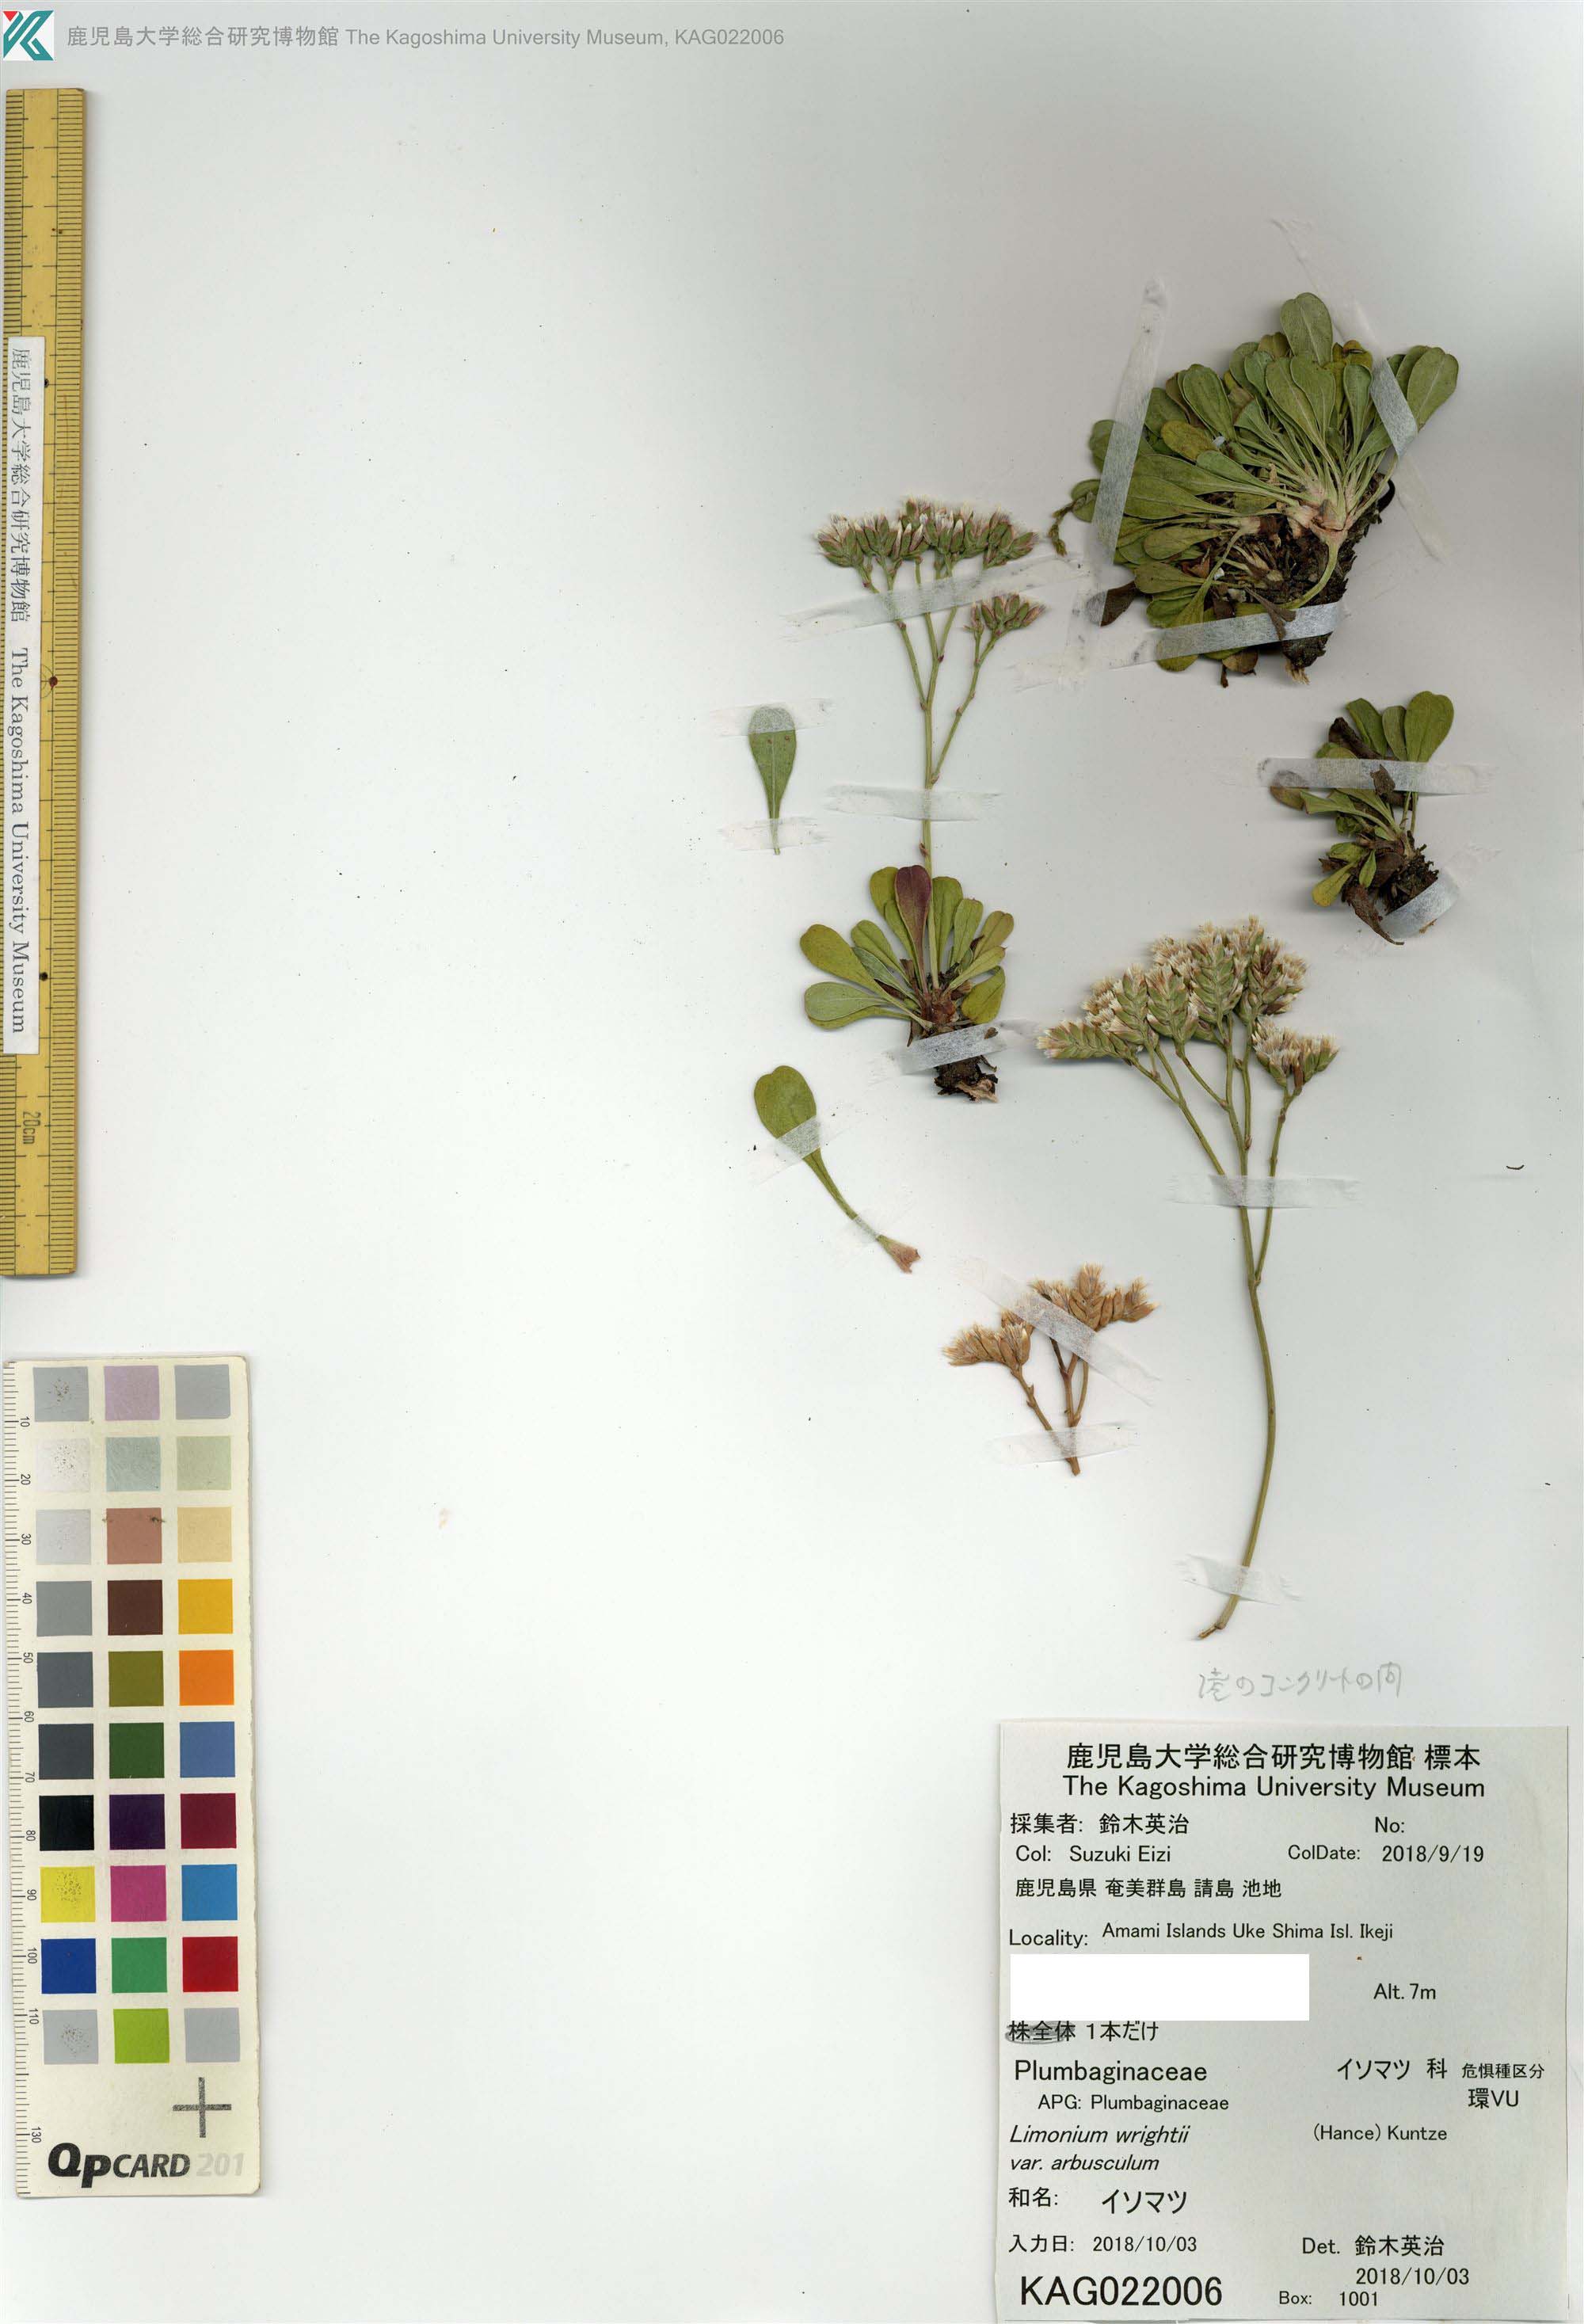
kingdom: Plantae
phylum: Tracheophyta
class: Magnoliopsida
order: Caryophyllales
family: Plumbaginaceae
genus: Limonium
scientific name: Limonium wrightii
